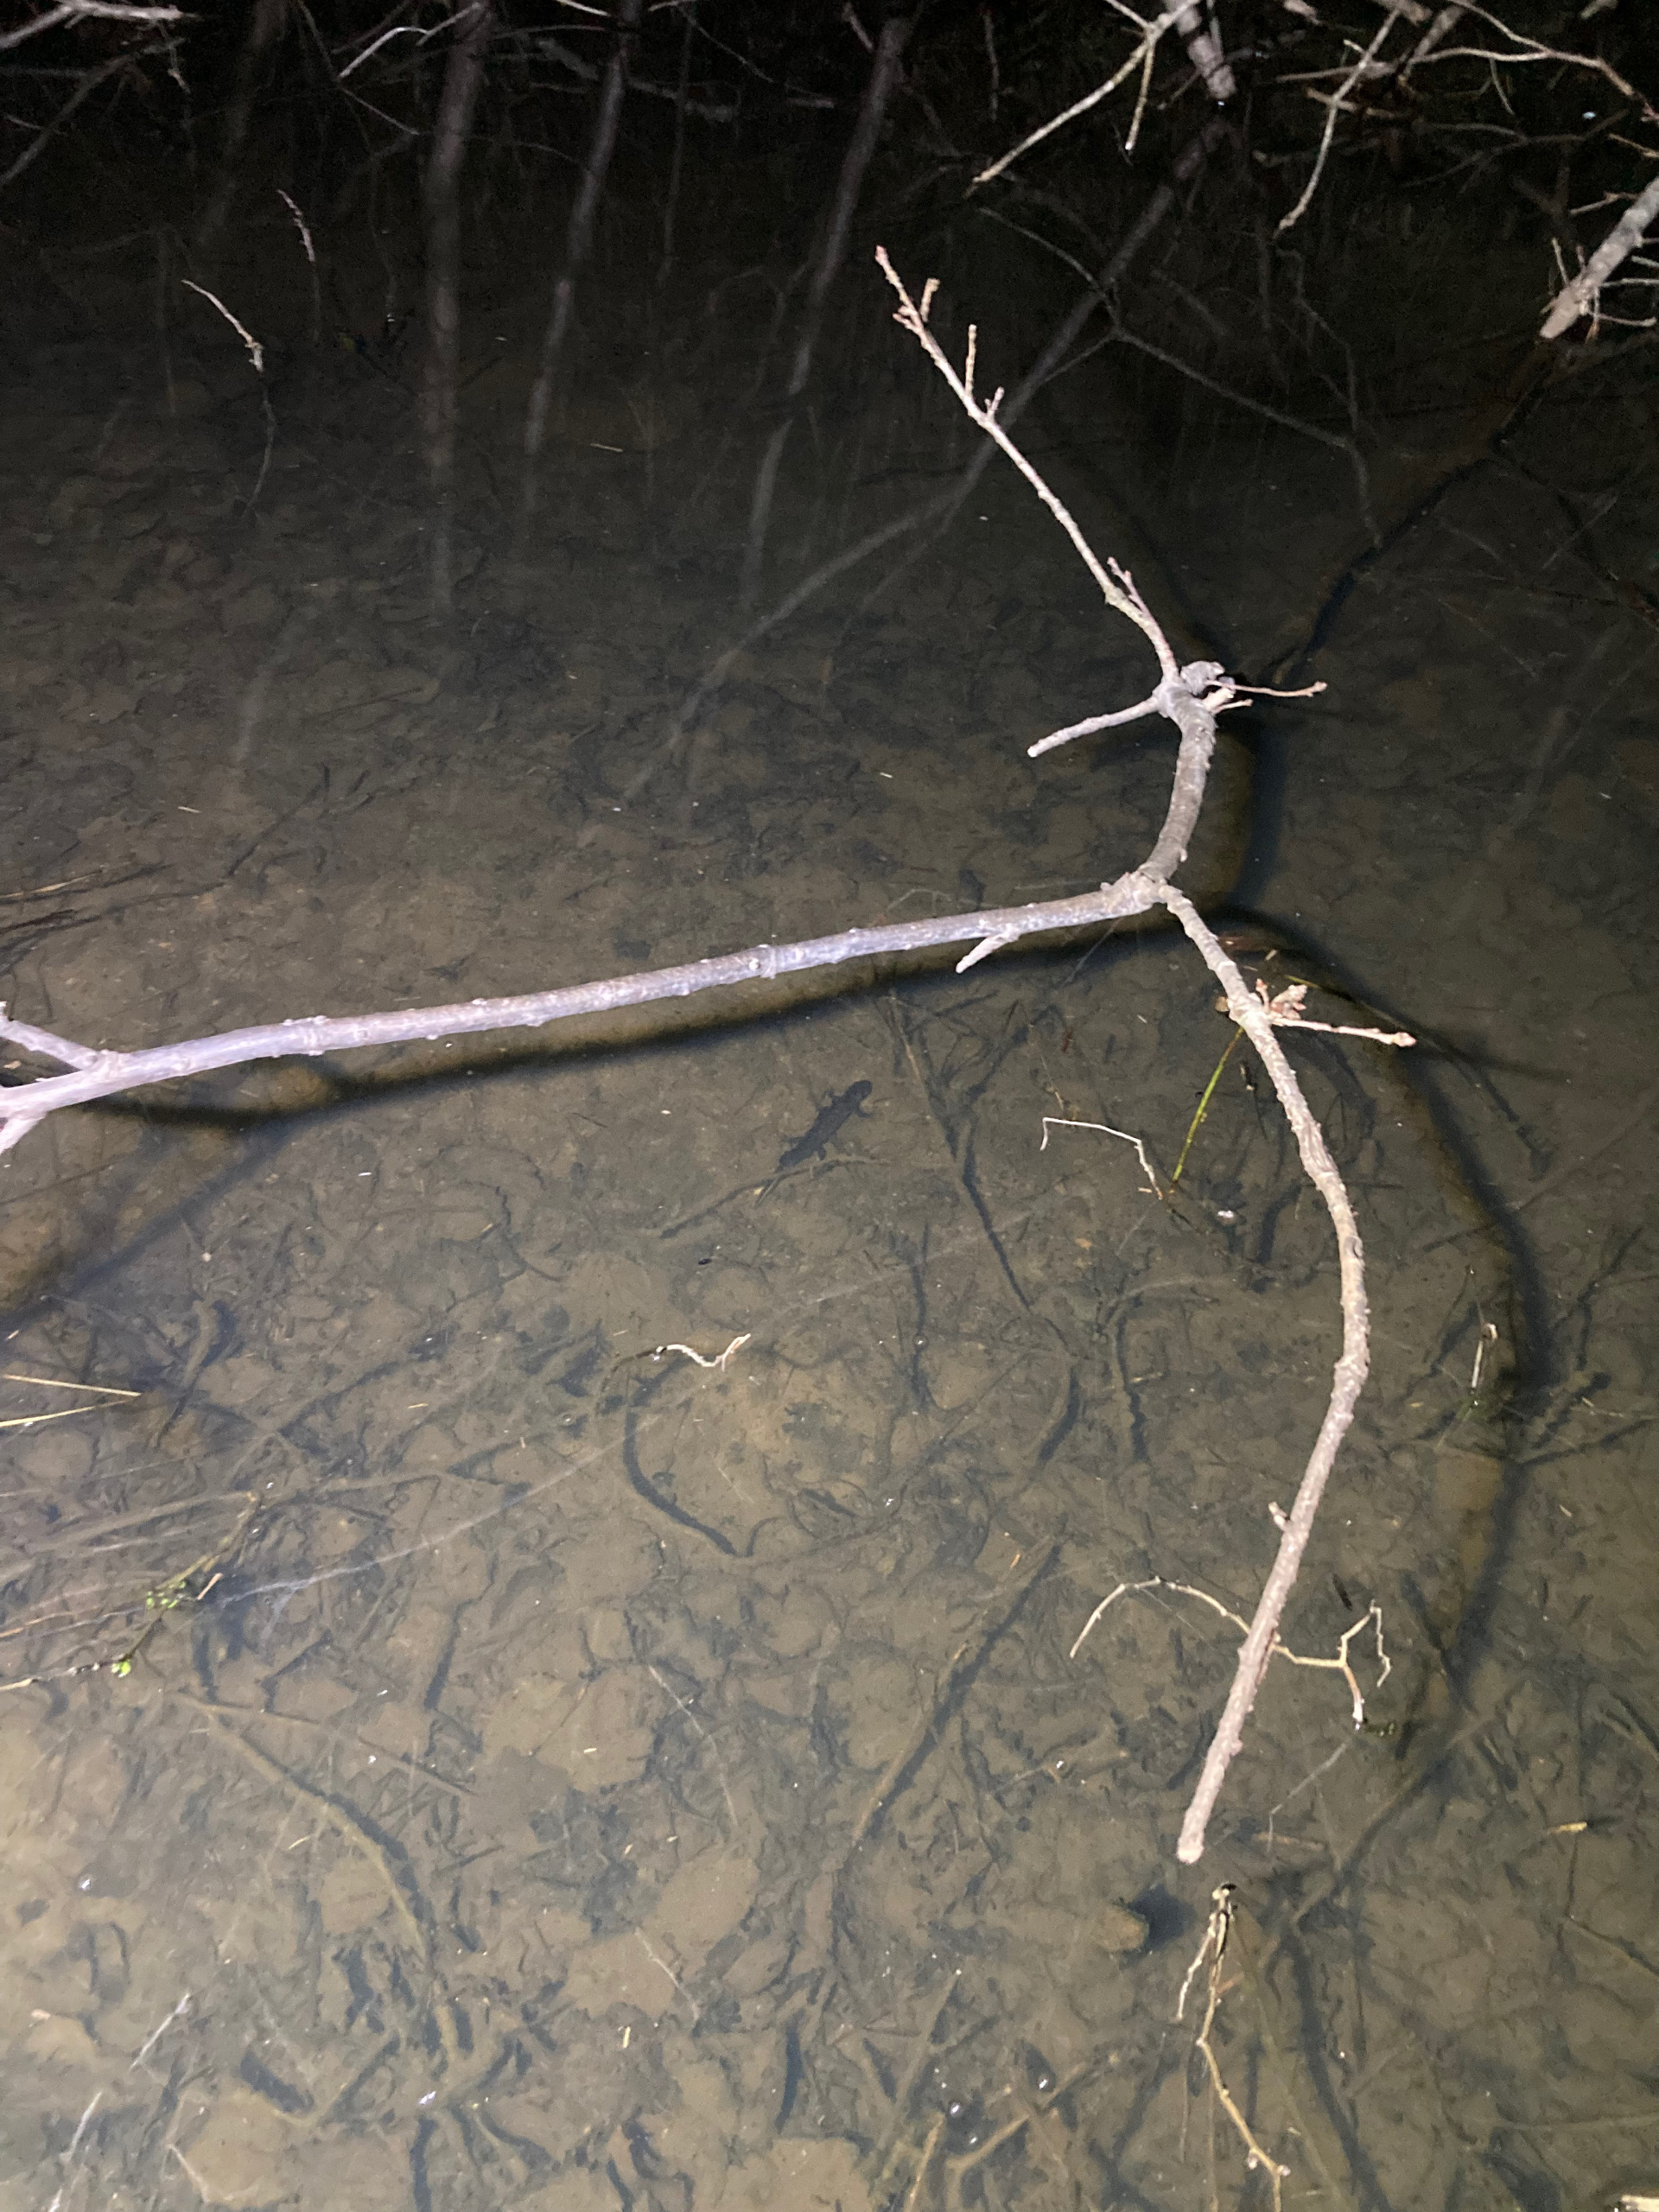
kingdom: Animalia
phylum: Chordata
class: Amphibia
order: Caudata
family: Salamandridae
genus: Triturus
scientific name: Triturus cristatus
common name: Stor vandsalamander
